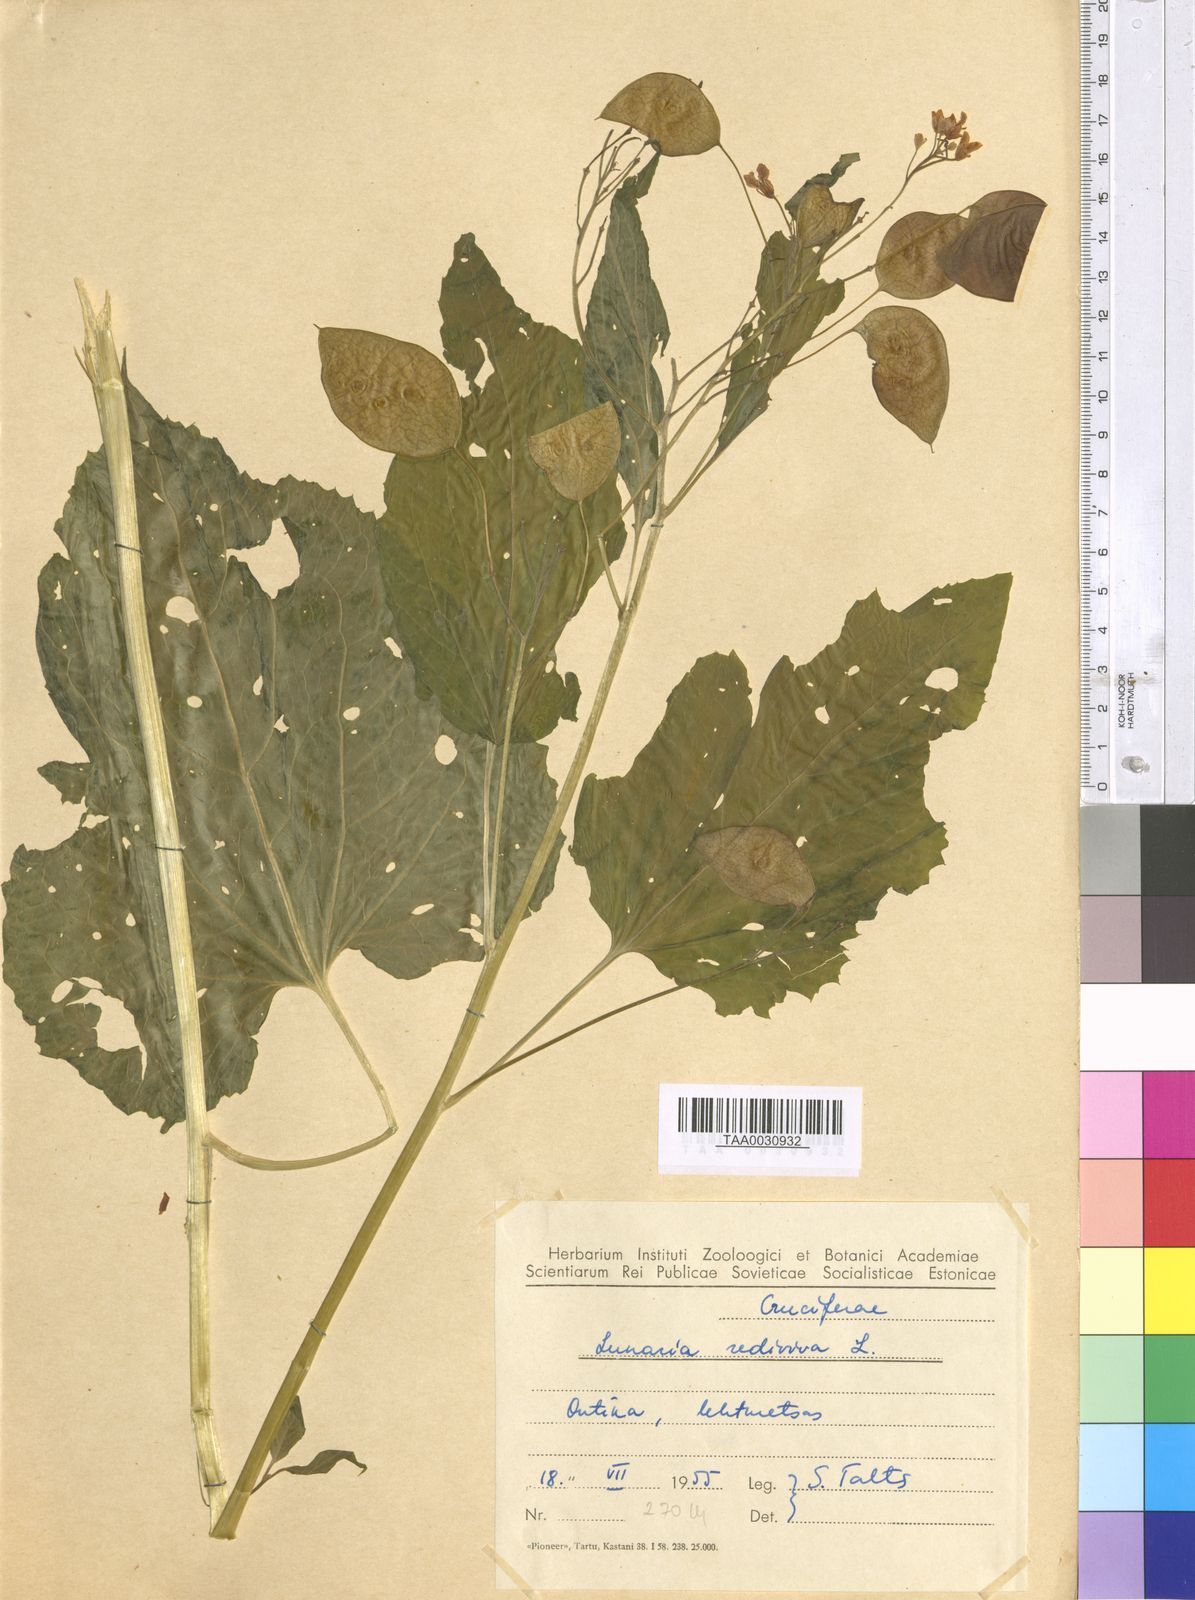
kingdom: Plantae
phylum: Tracheophyta
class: Magnoliopsida
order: Brassicales
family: Brassicaceae
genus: Lunaria
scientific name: Lunaria rediviva
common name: Perennial honesty
